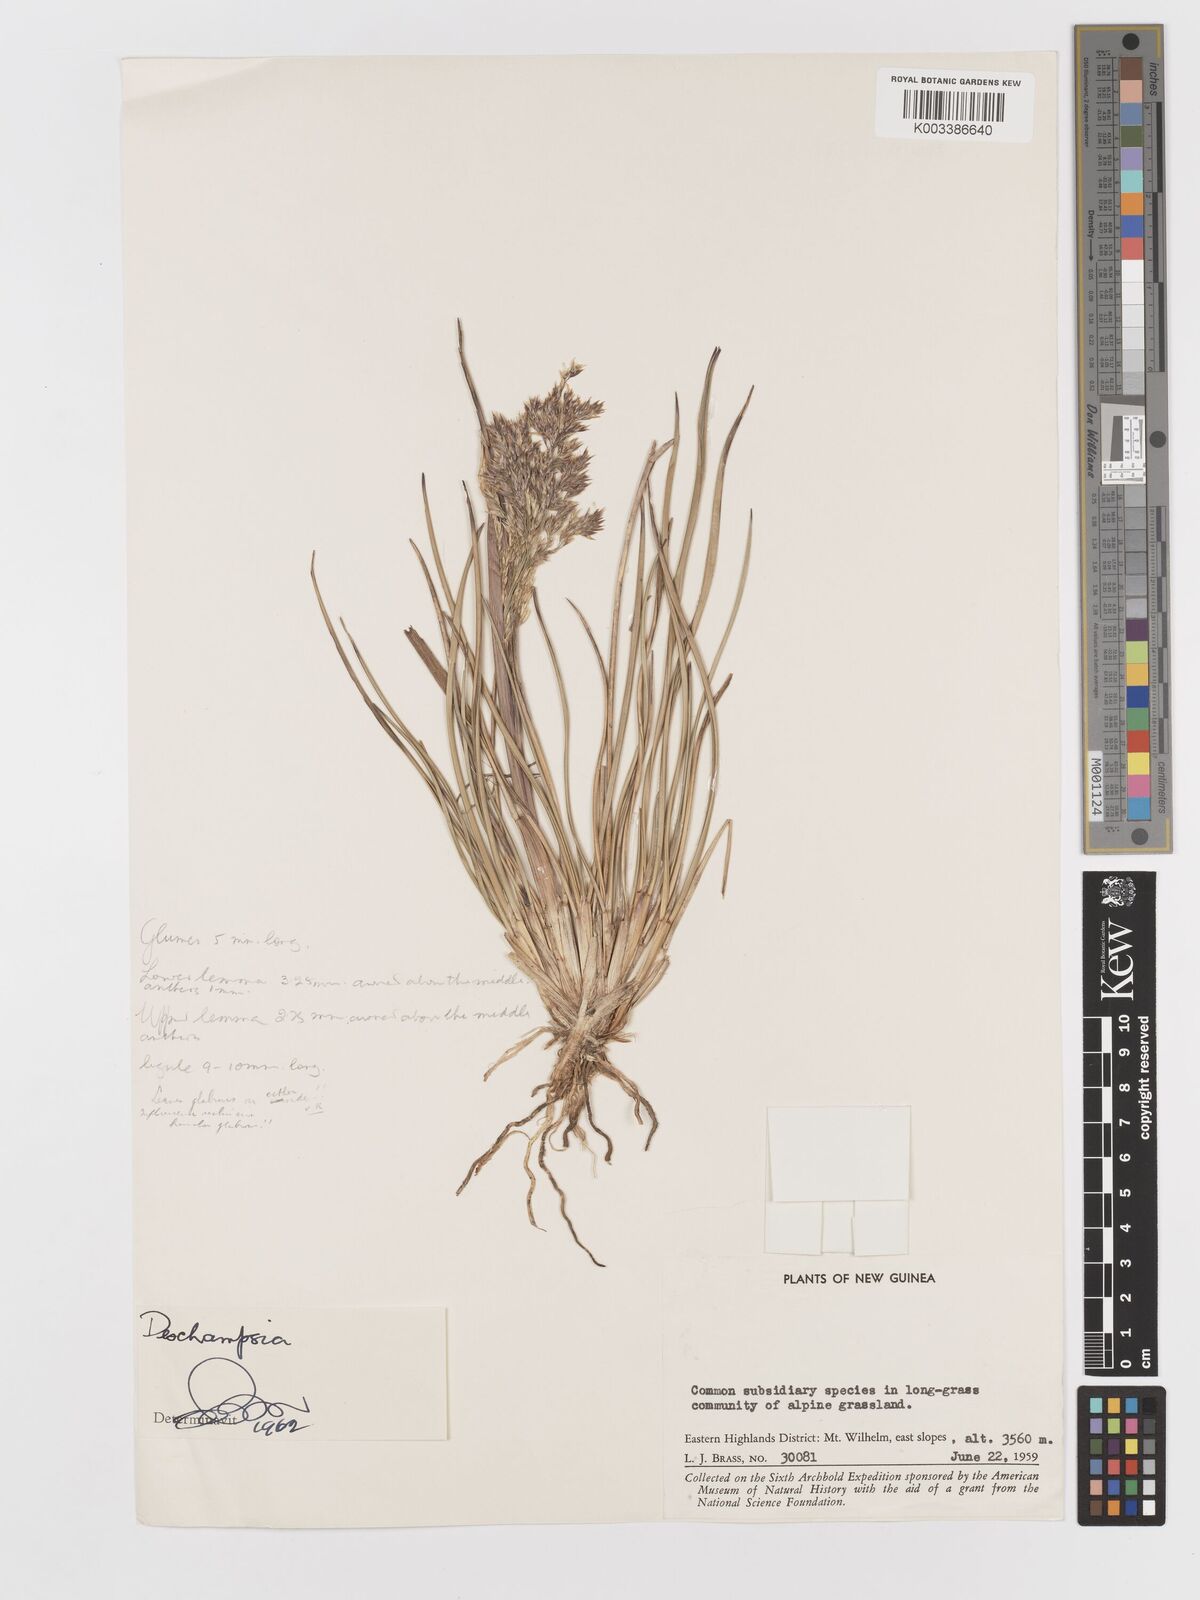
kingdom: Plantae
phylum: Tracheophyta
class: Liliopsida
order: Poales
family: Poaceae
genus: Deschampsia
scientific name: Deschampsia klossii
